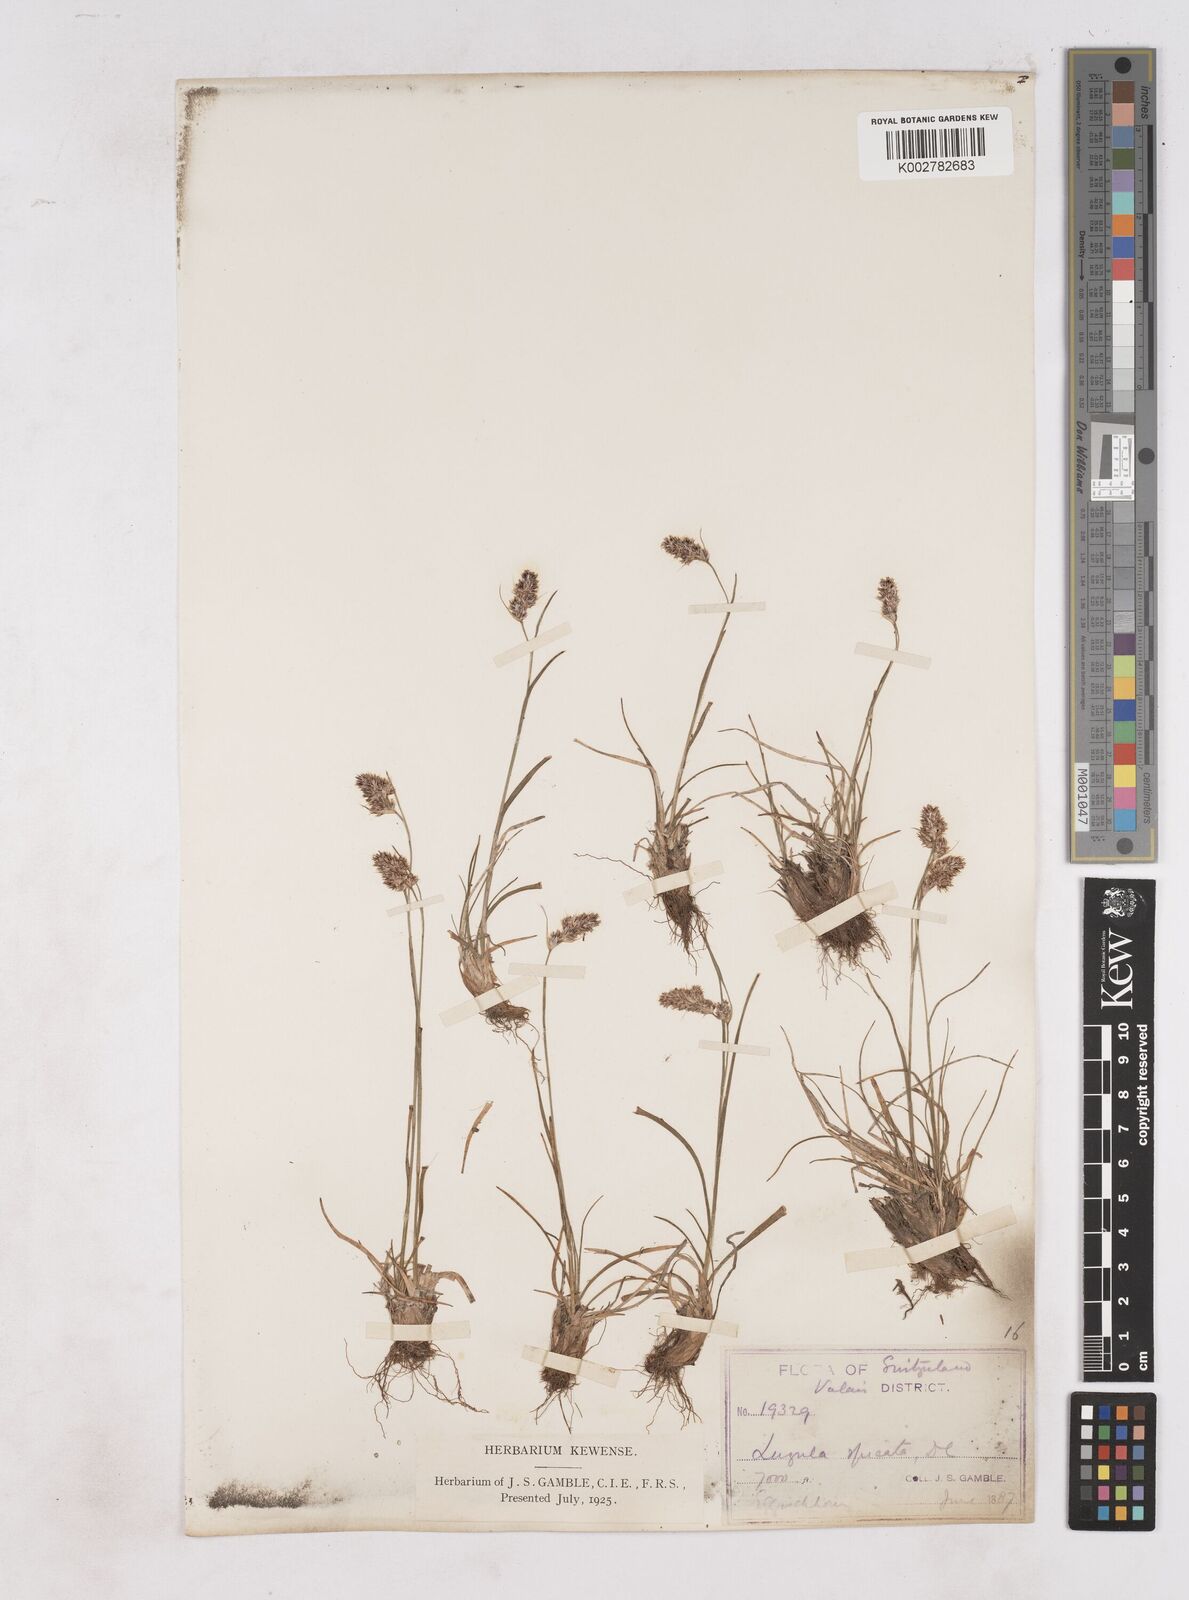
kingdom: Plantae
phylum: Tracheophyta
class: Liliopsida
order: Poales
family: Juncaceae
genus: Luzula
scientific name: Luzula spicata
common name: Spiked wood-rush
